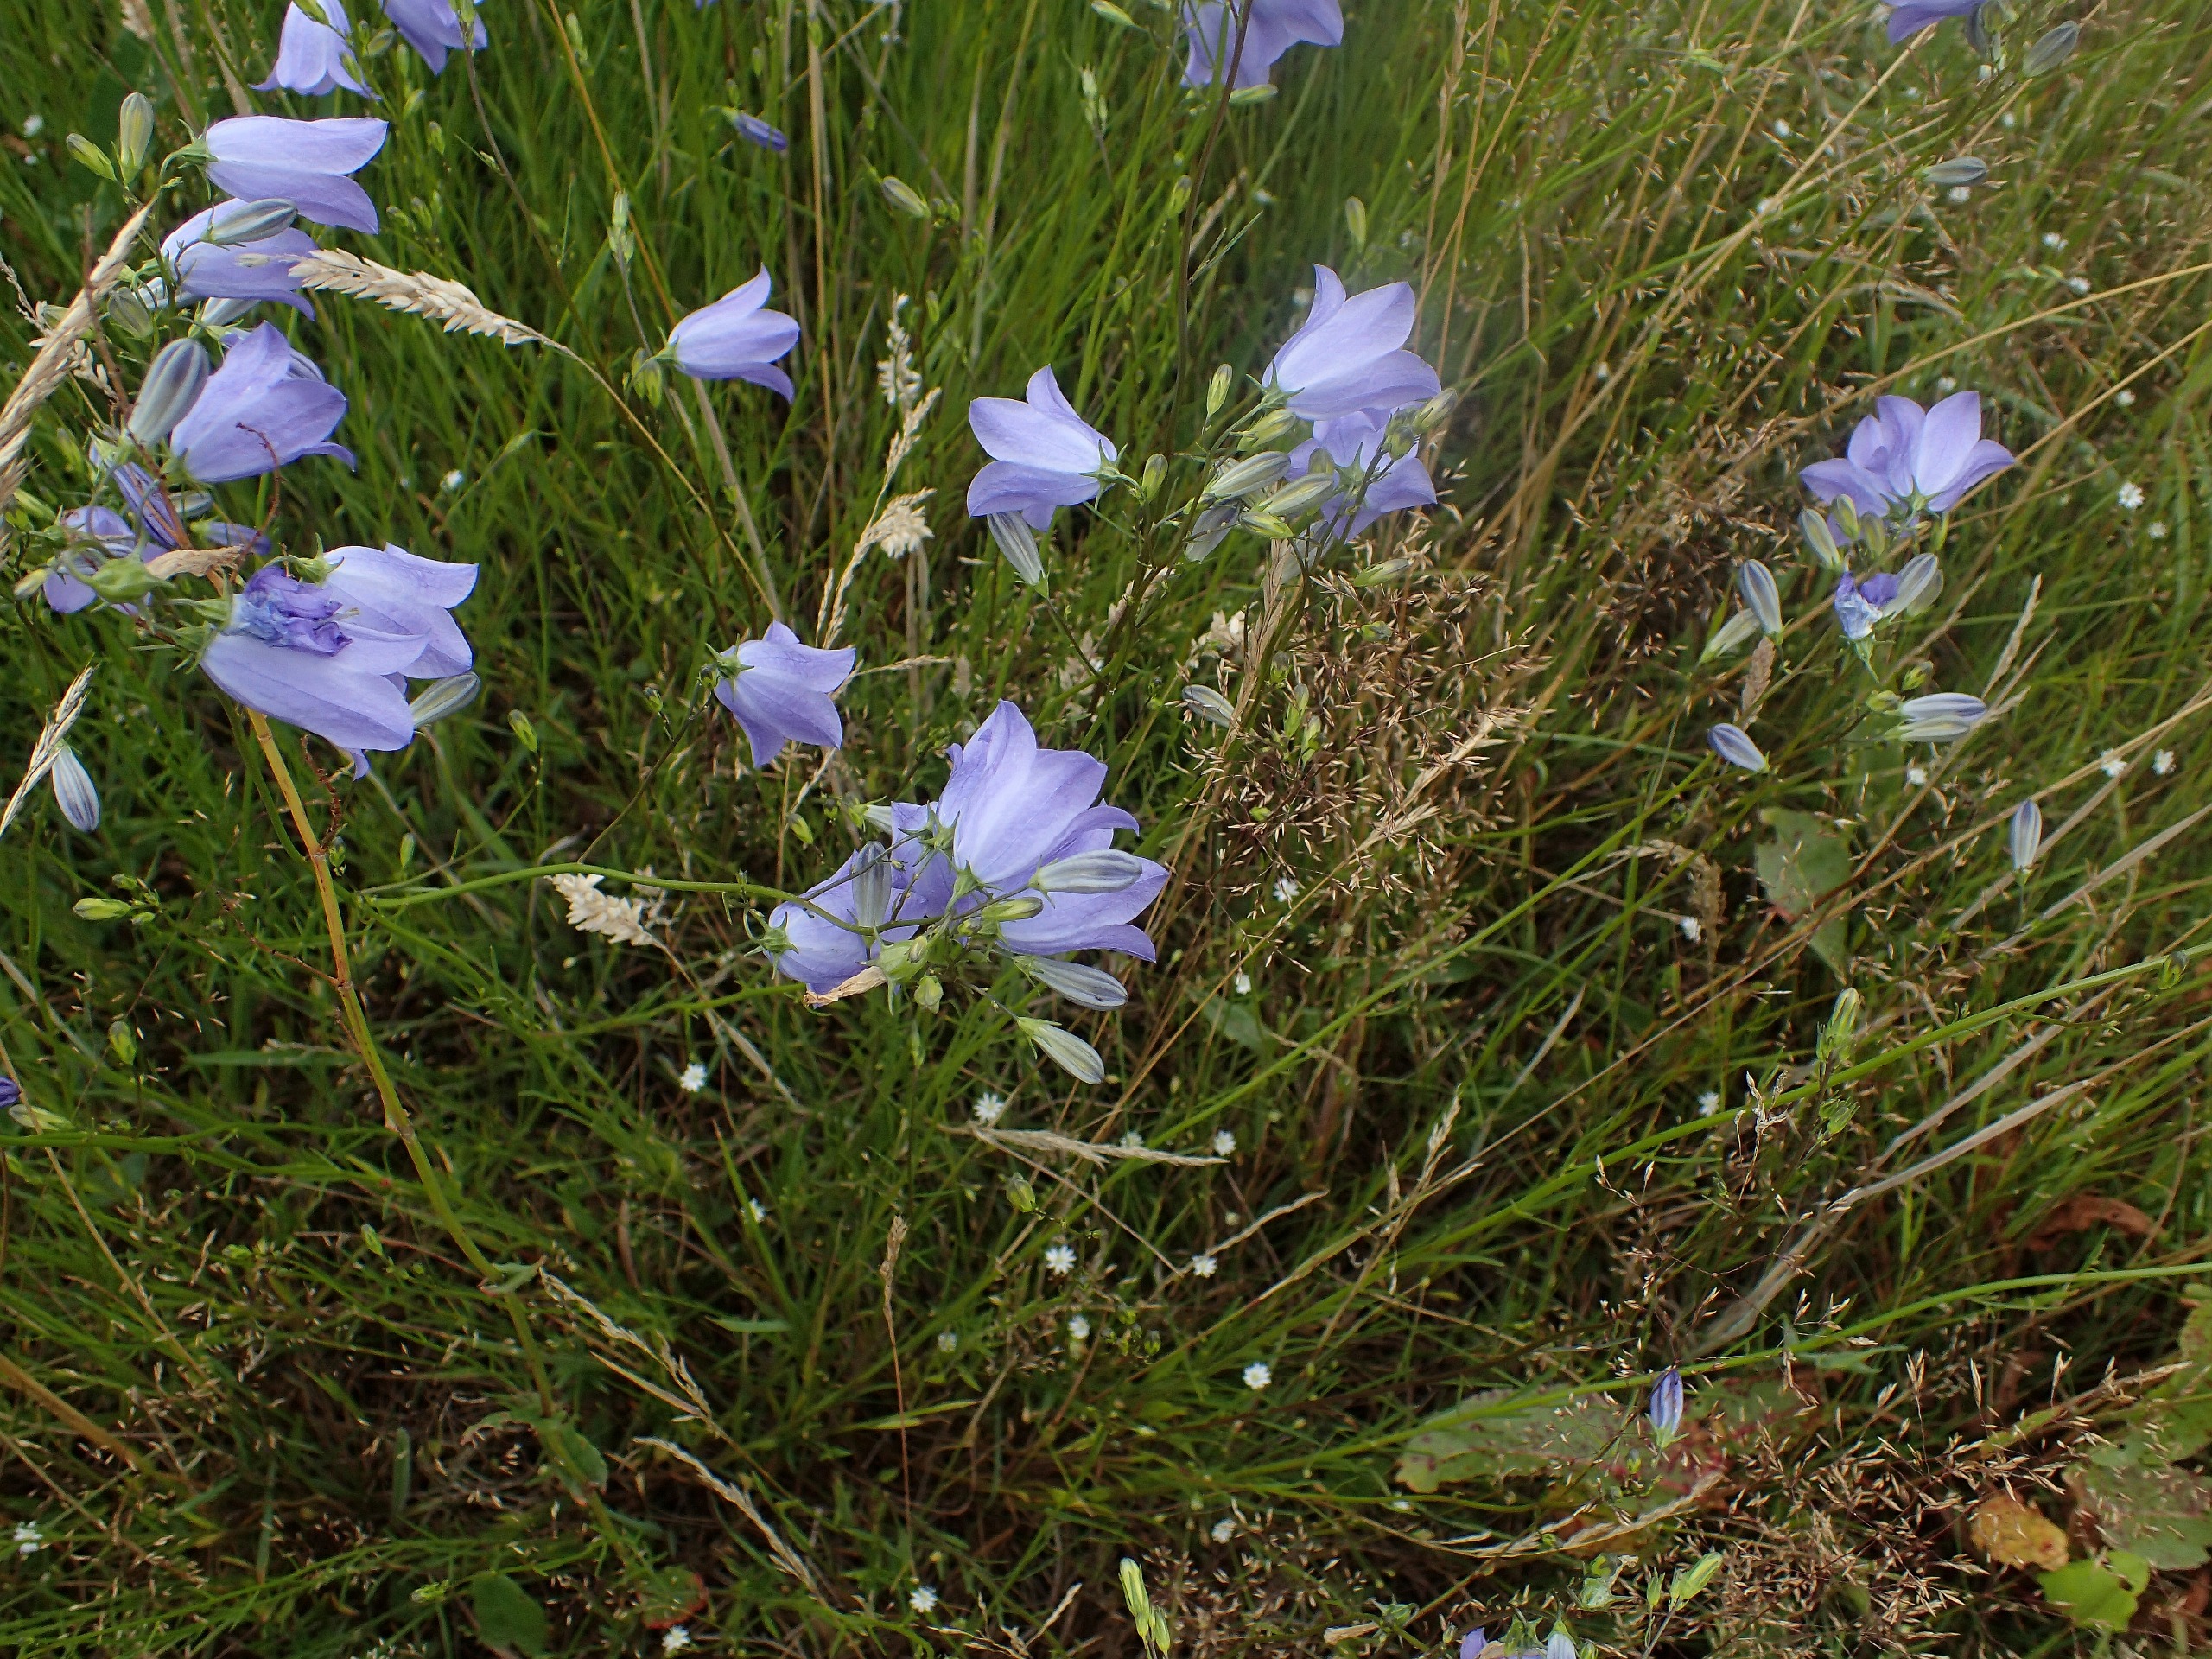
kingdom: Plantae
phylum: Tracheophyta
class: Magnoliopsida
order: Asterales
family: Campanulaceae
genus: Campanula
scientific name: Campanula rotundifolia
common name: Liden klokke
